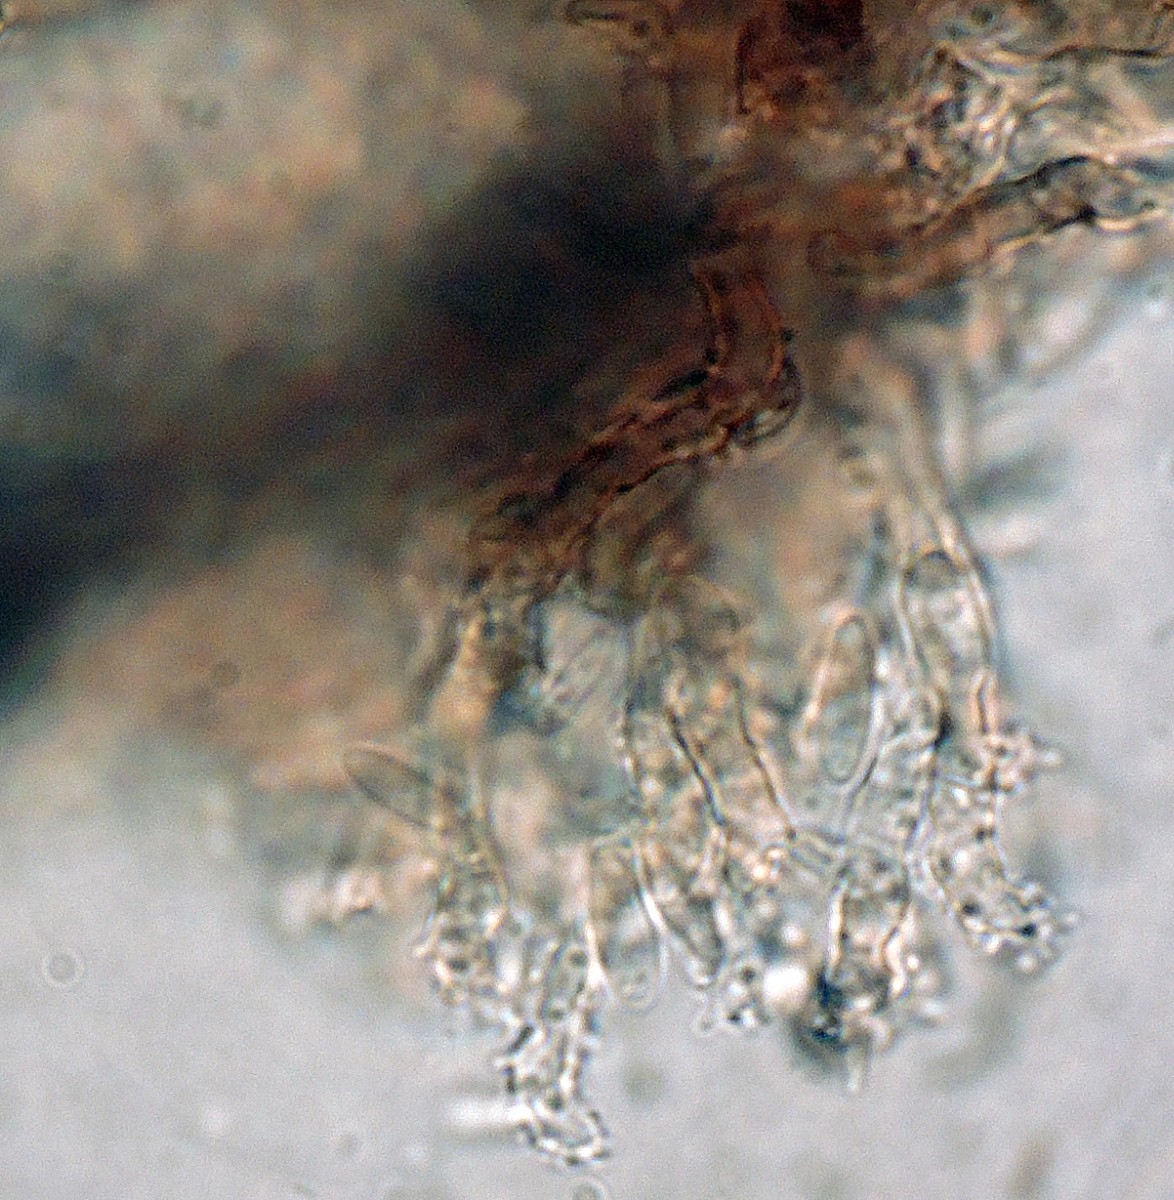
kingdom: Fungi
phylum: Ascomycota
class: Sordariomycetes
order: Xylariales
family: Diatrypaceae
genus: Phaeoisaria
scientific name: Phaeoisaria clematidis
